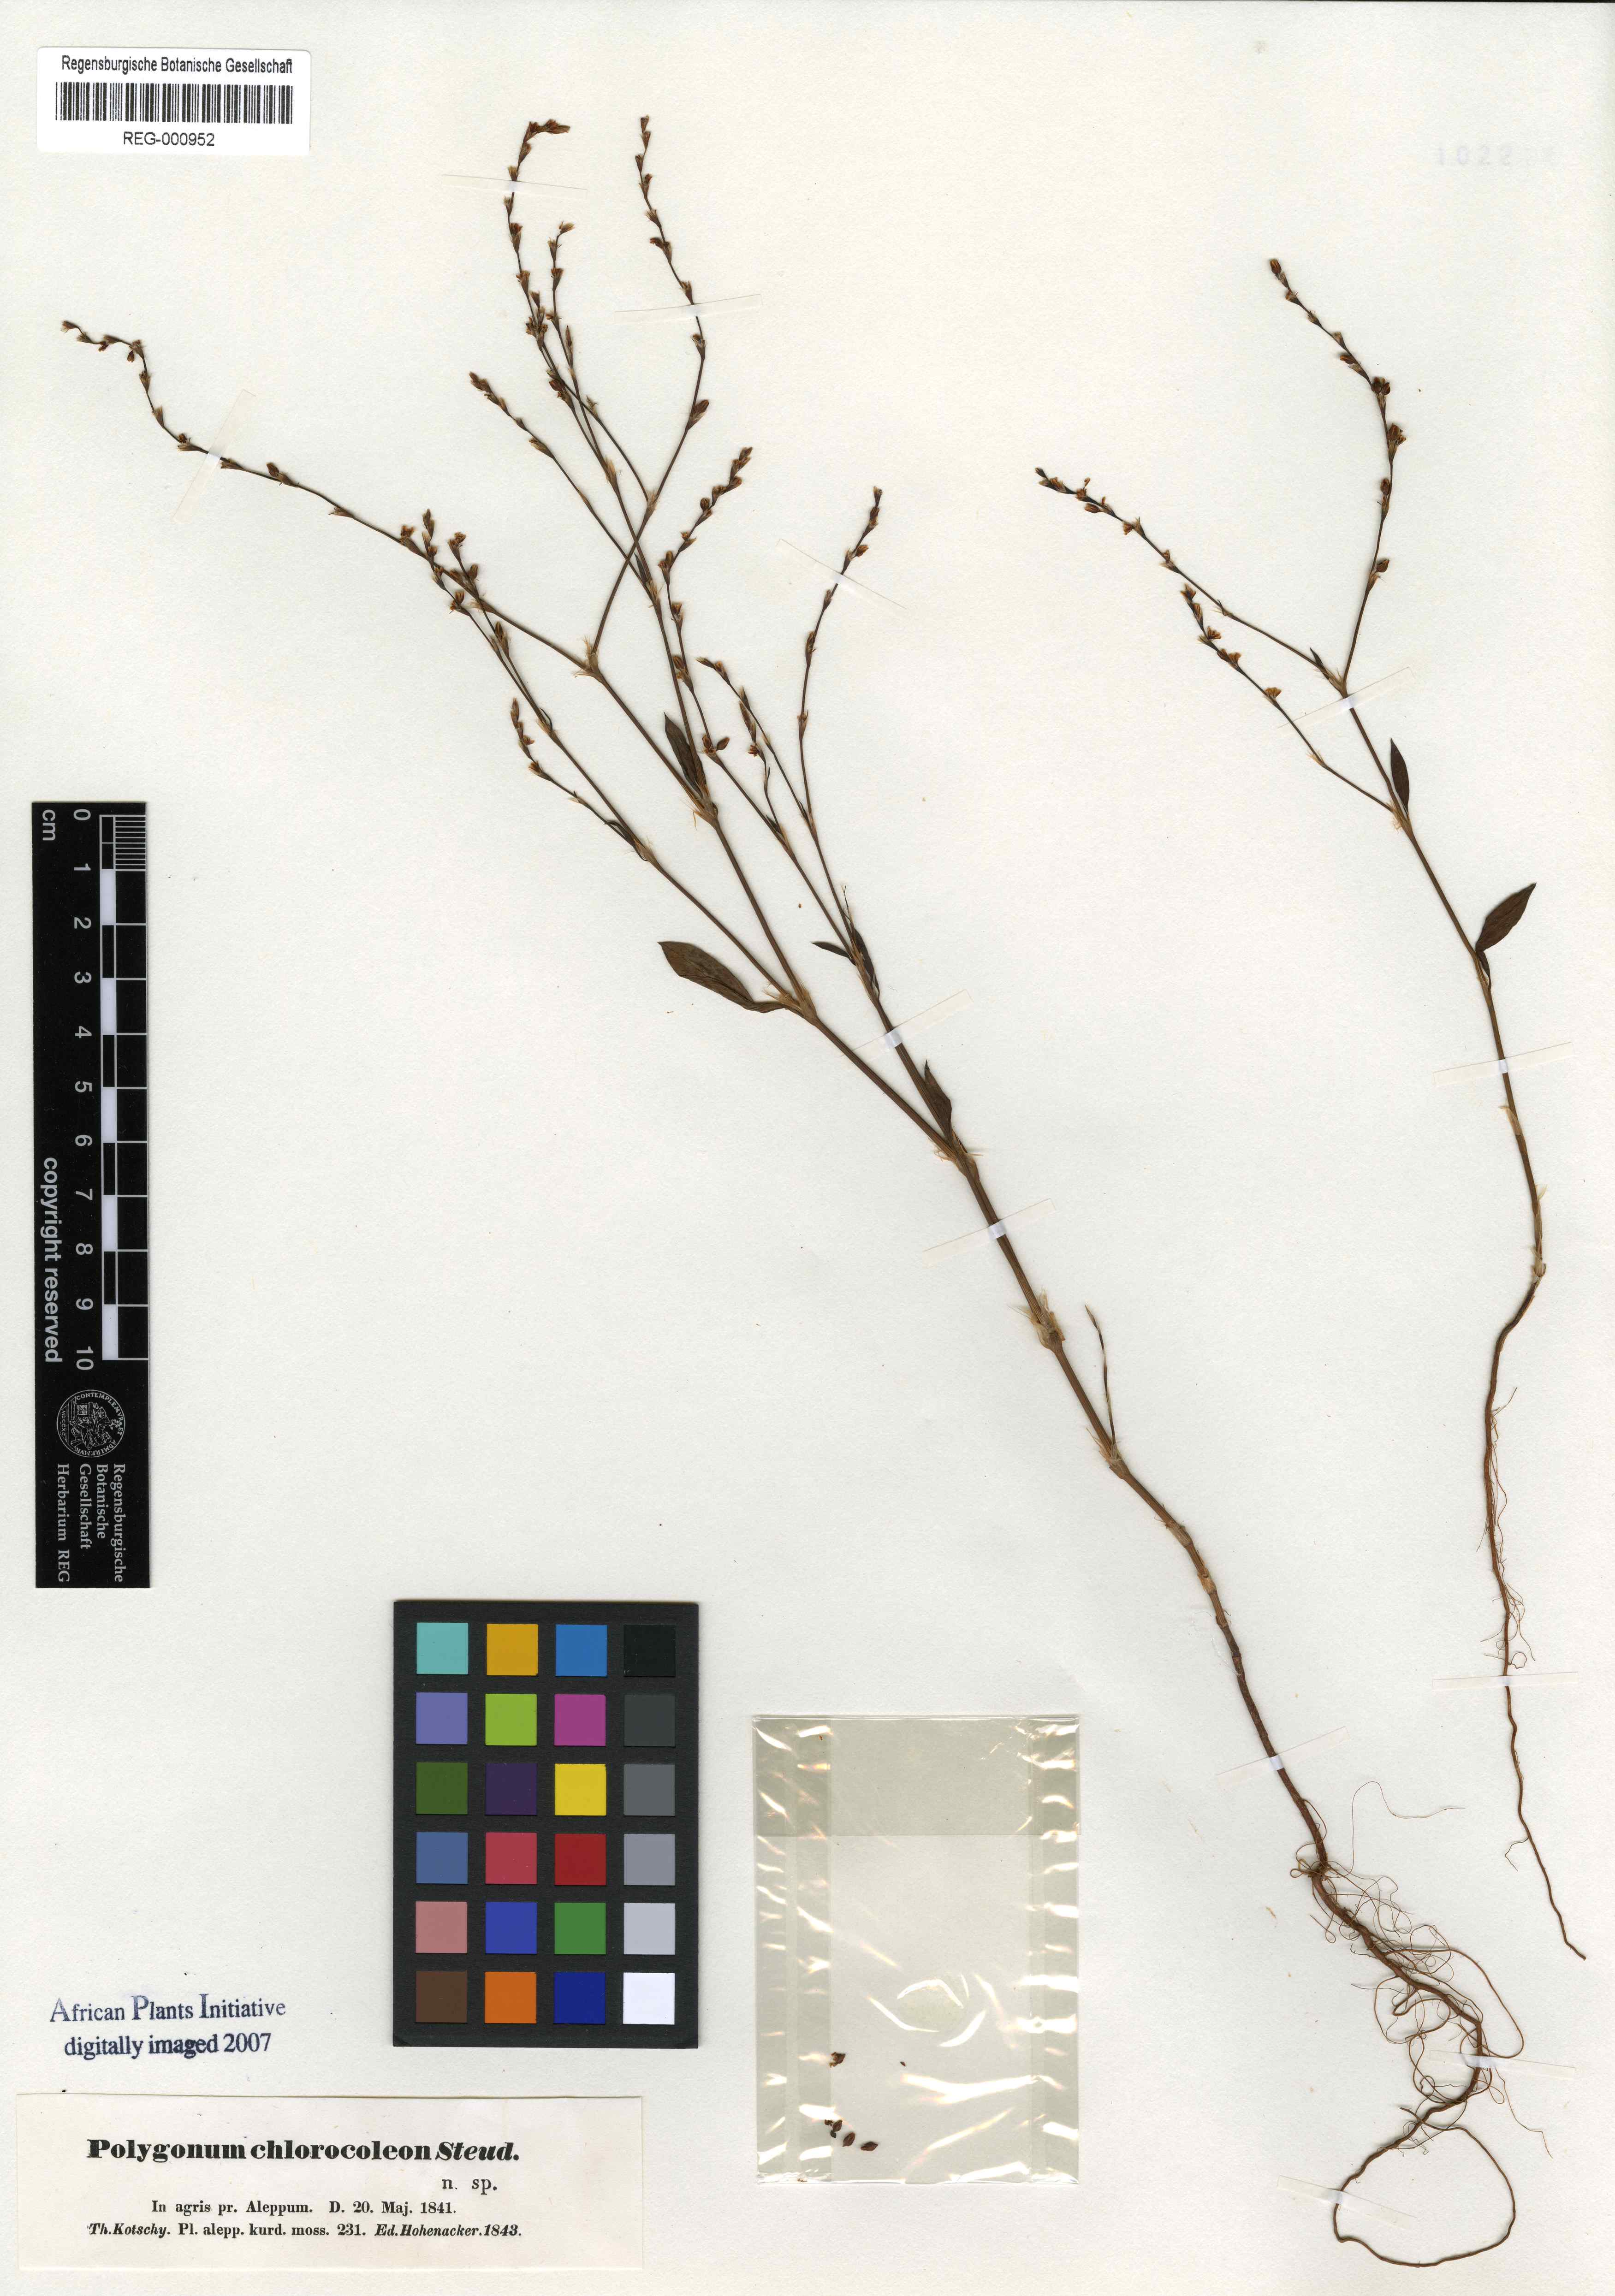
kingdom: Plantae
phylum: Tracheophyta
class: Magnoliopsida
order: Caryophyllales
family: Polygonaceae
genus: Polygonum
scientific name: Polygonum argyrocoleum
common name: Silversheath knotweed
